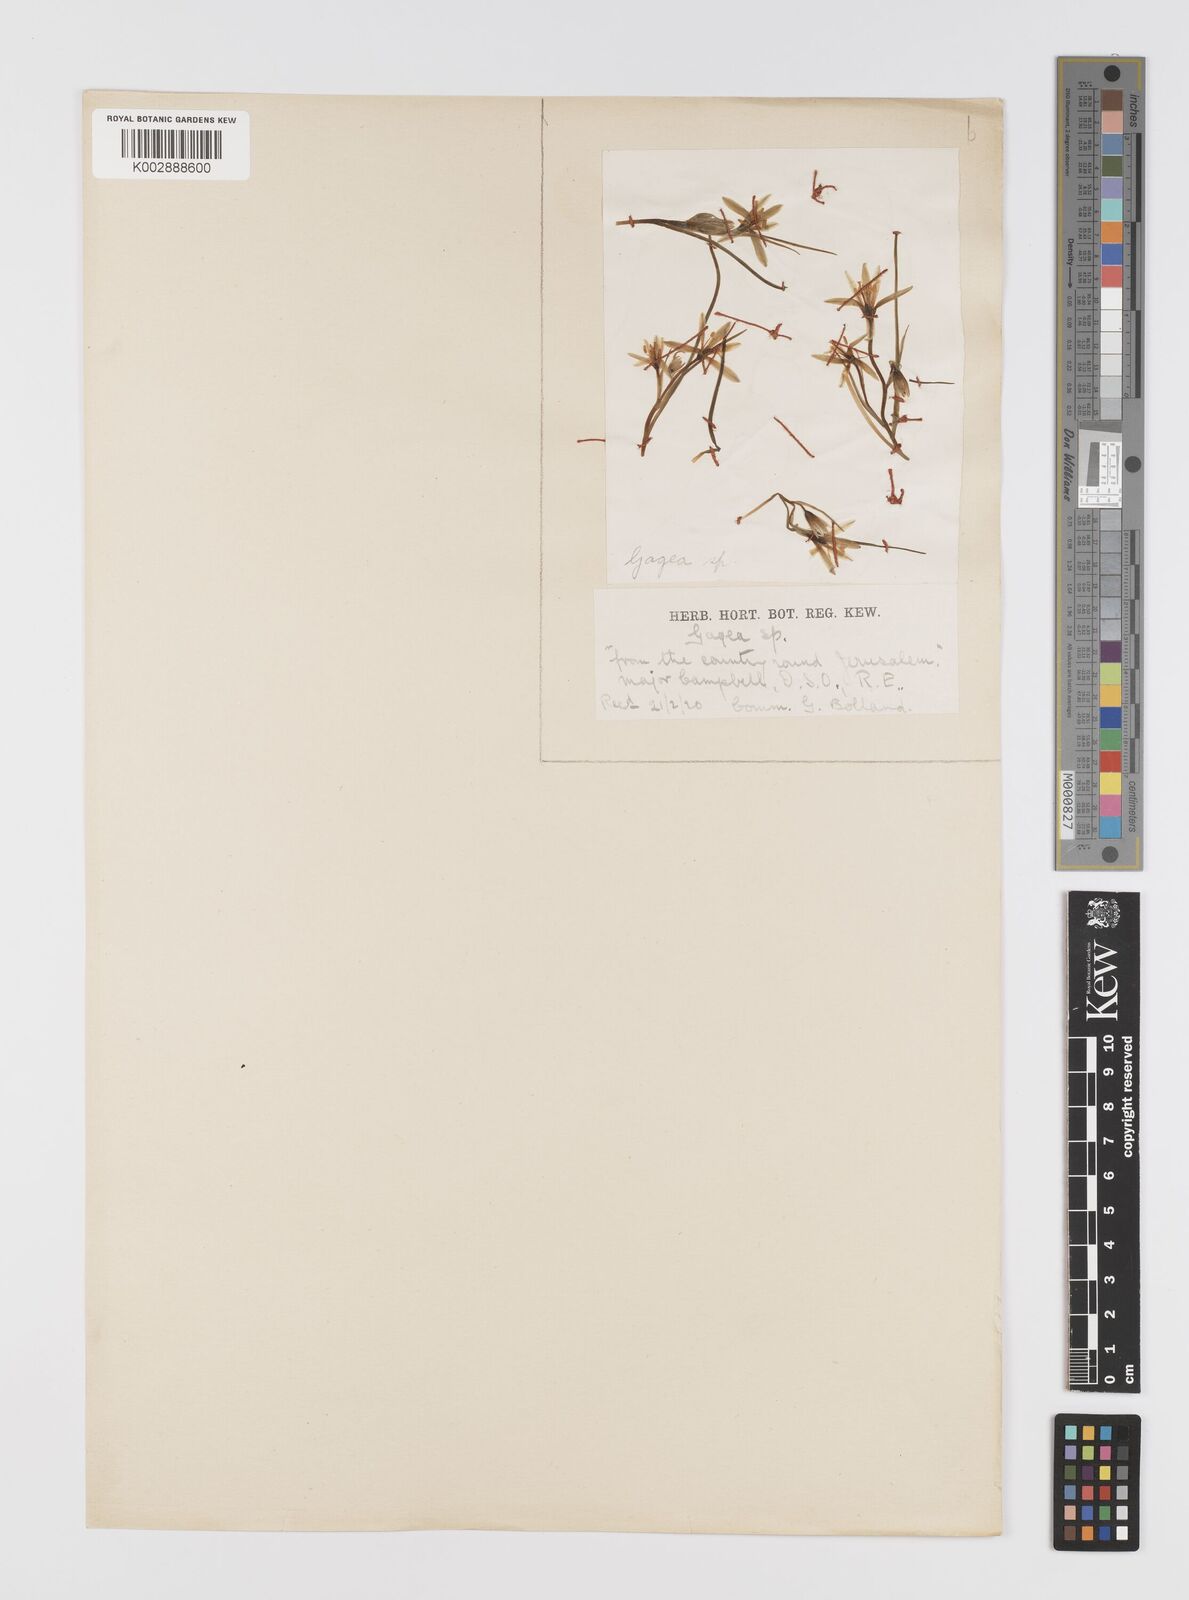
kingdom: Plantae
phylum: Tracheophyta
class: Liliopsida
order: Liliales
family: Liliaceae
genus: Gagea
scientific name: Gagea chlorantha
